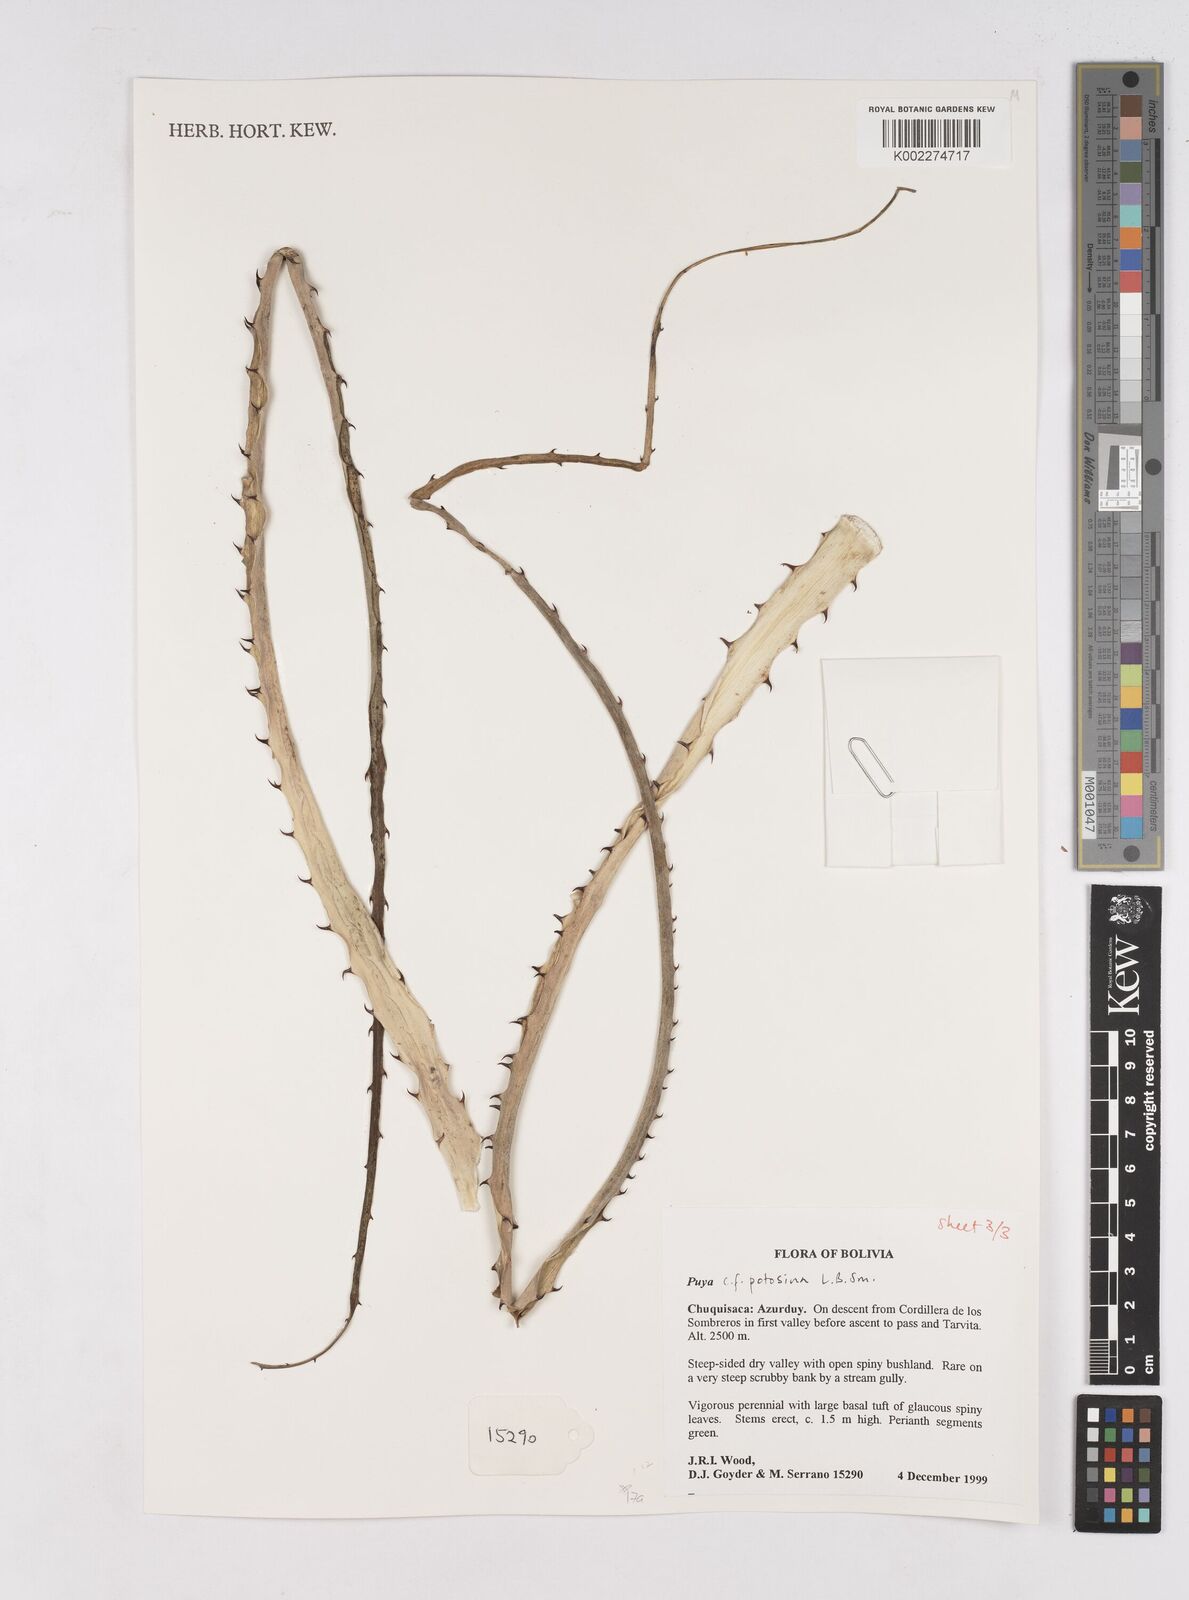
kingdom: Plantae
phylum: Tracheophyta
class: Liliopsida
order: Poales
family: Bromeliaceae
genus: Puya
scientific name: Puya potosina
